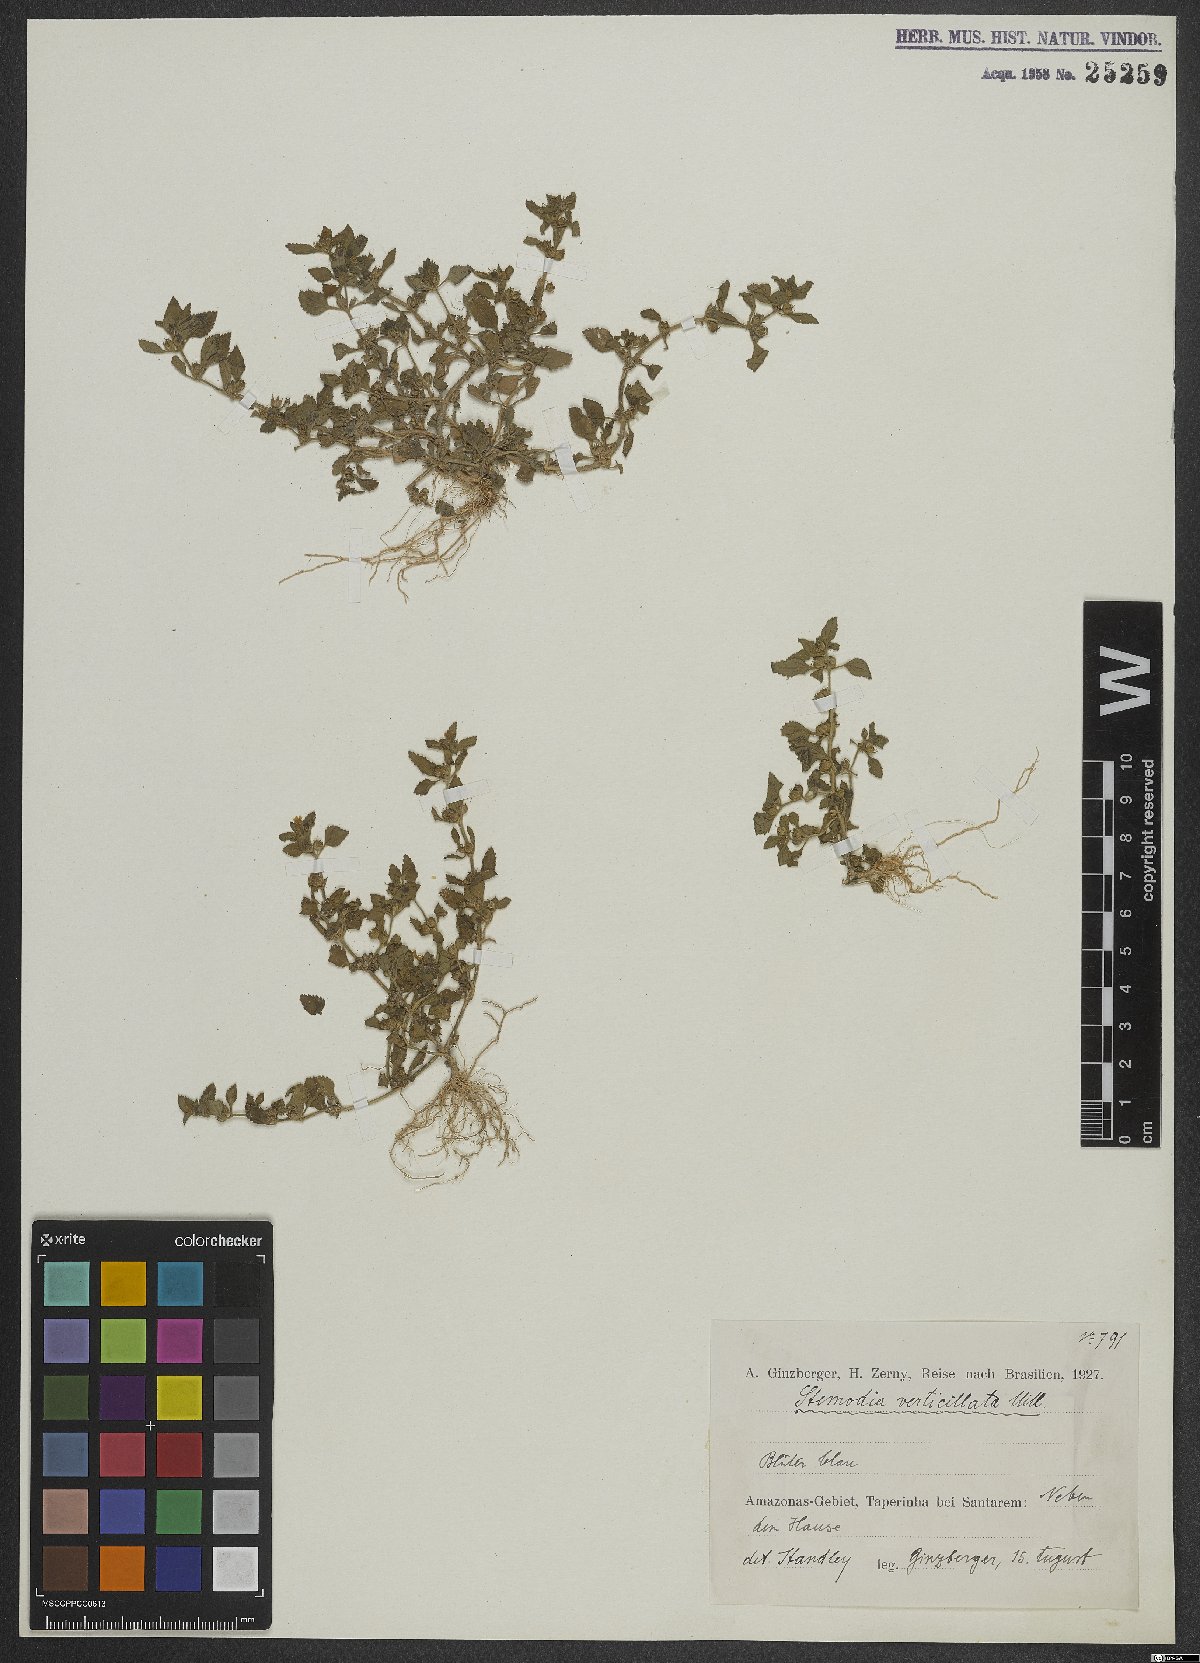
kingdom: Plantae
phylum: Tracheophyta
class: Magnoliopsida
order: Lamiales
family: Plantaginaceae
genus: Stemodia
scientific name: Stemodia verticillata
